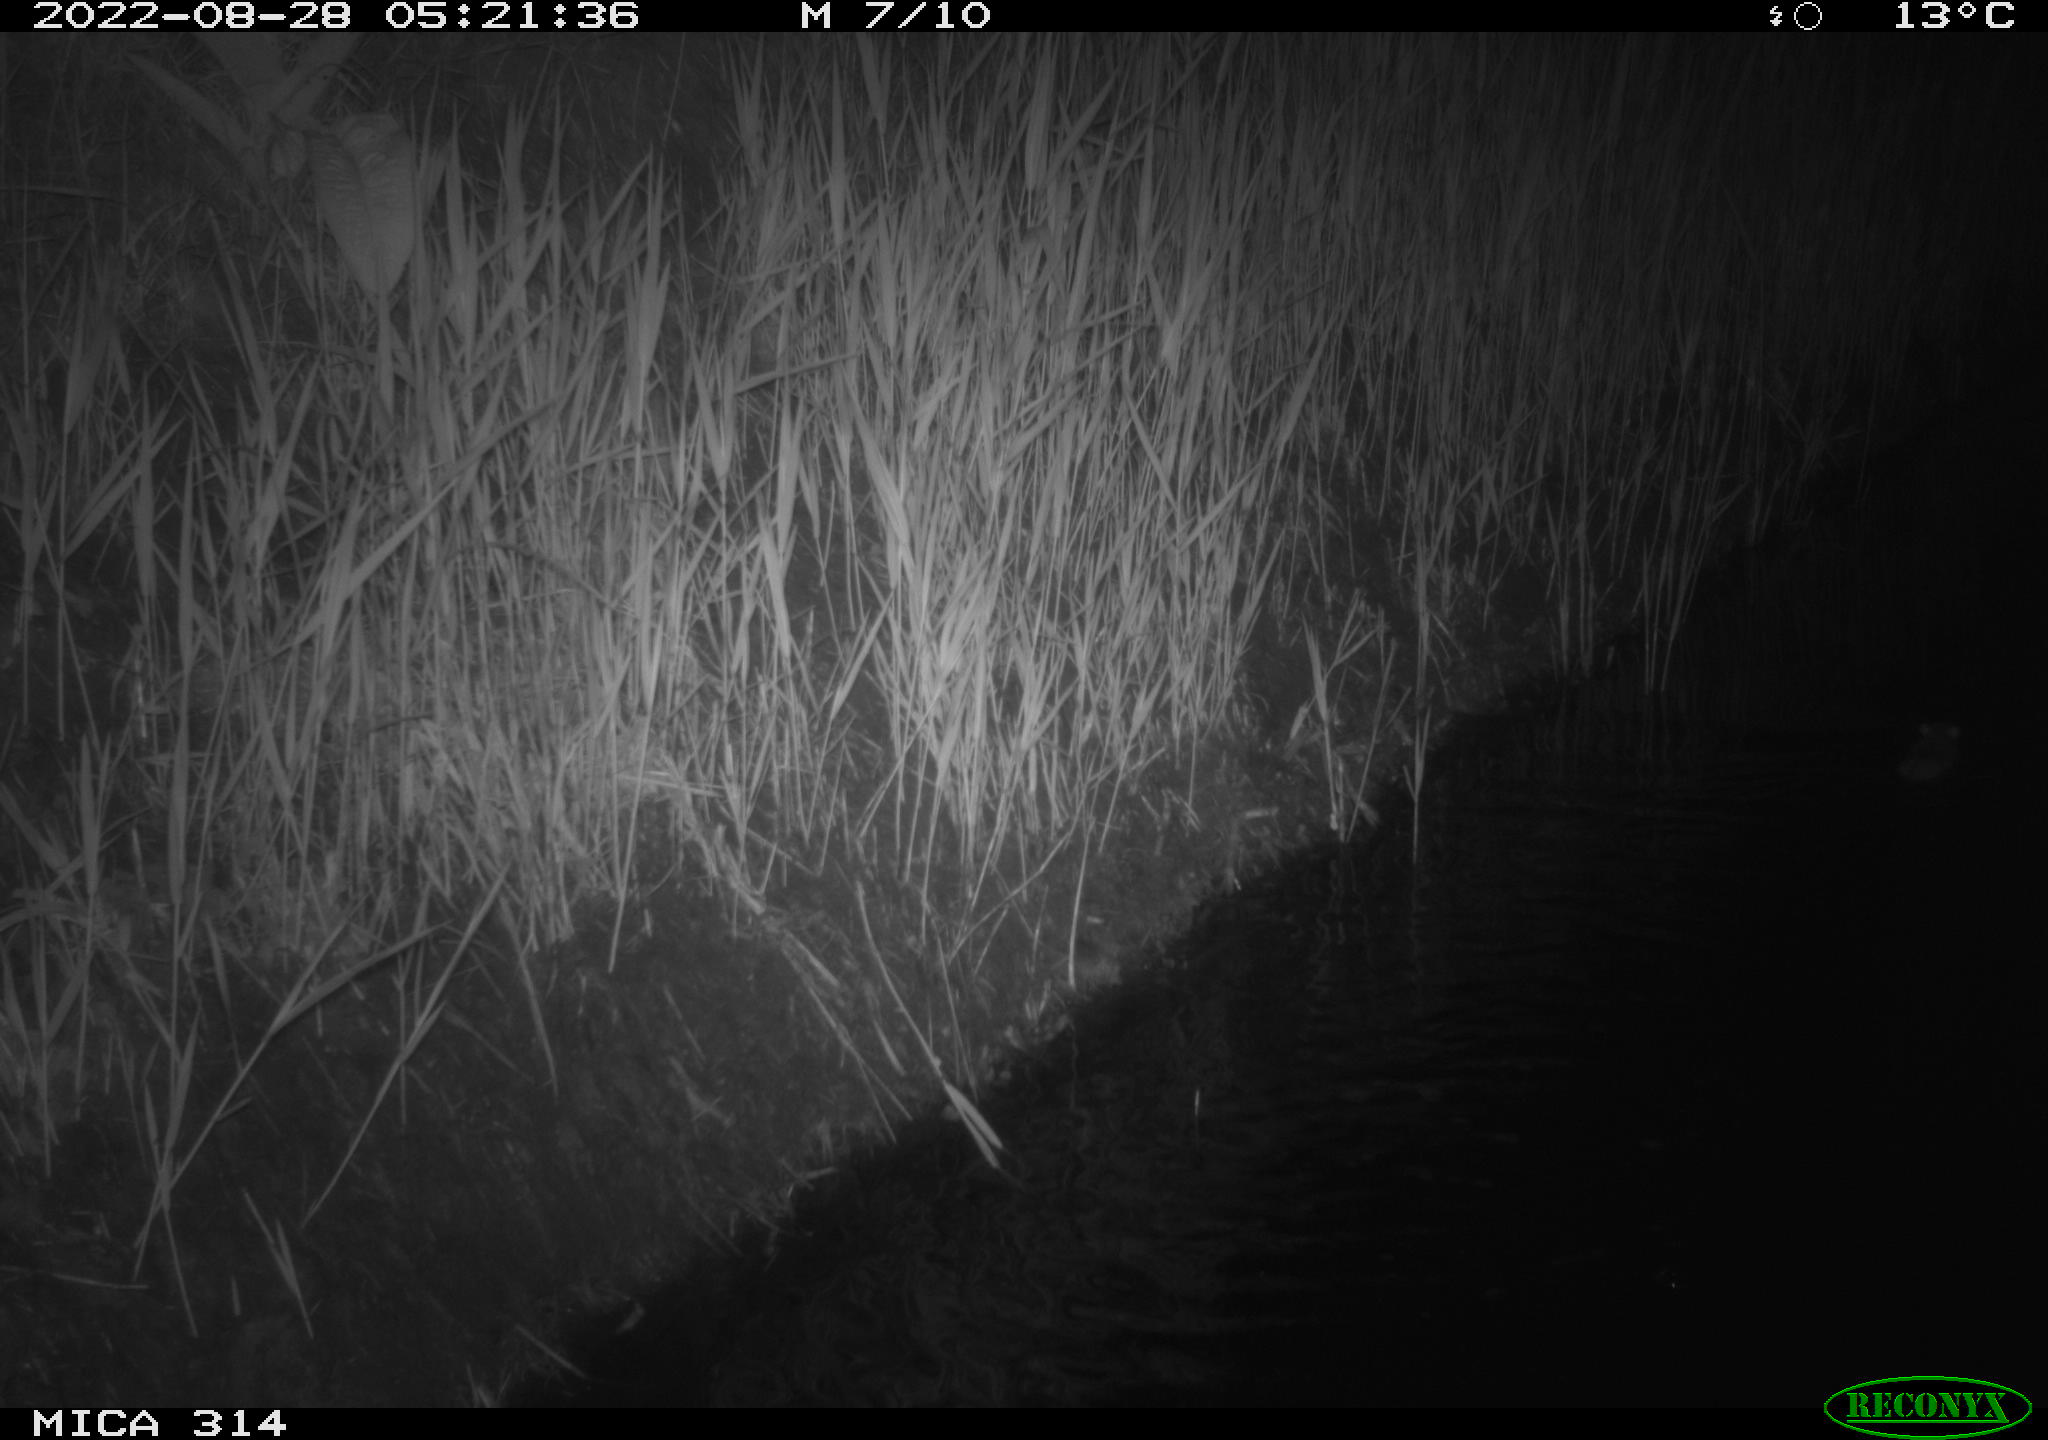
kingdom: Animalia
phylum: Chordata
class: Mammalia
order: Rodentia
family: Muridae
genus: Rattus
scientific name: Rattus norvegicus
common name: Brown rat
